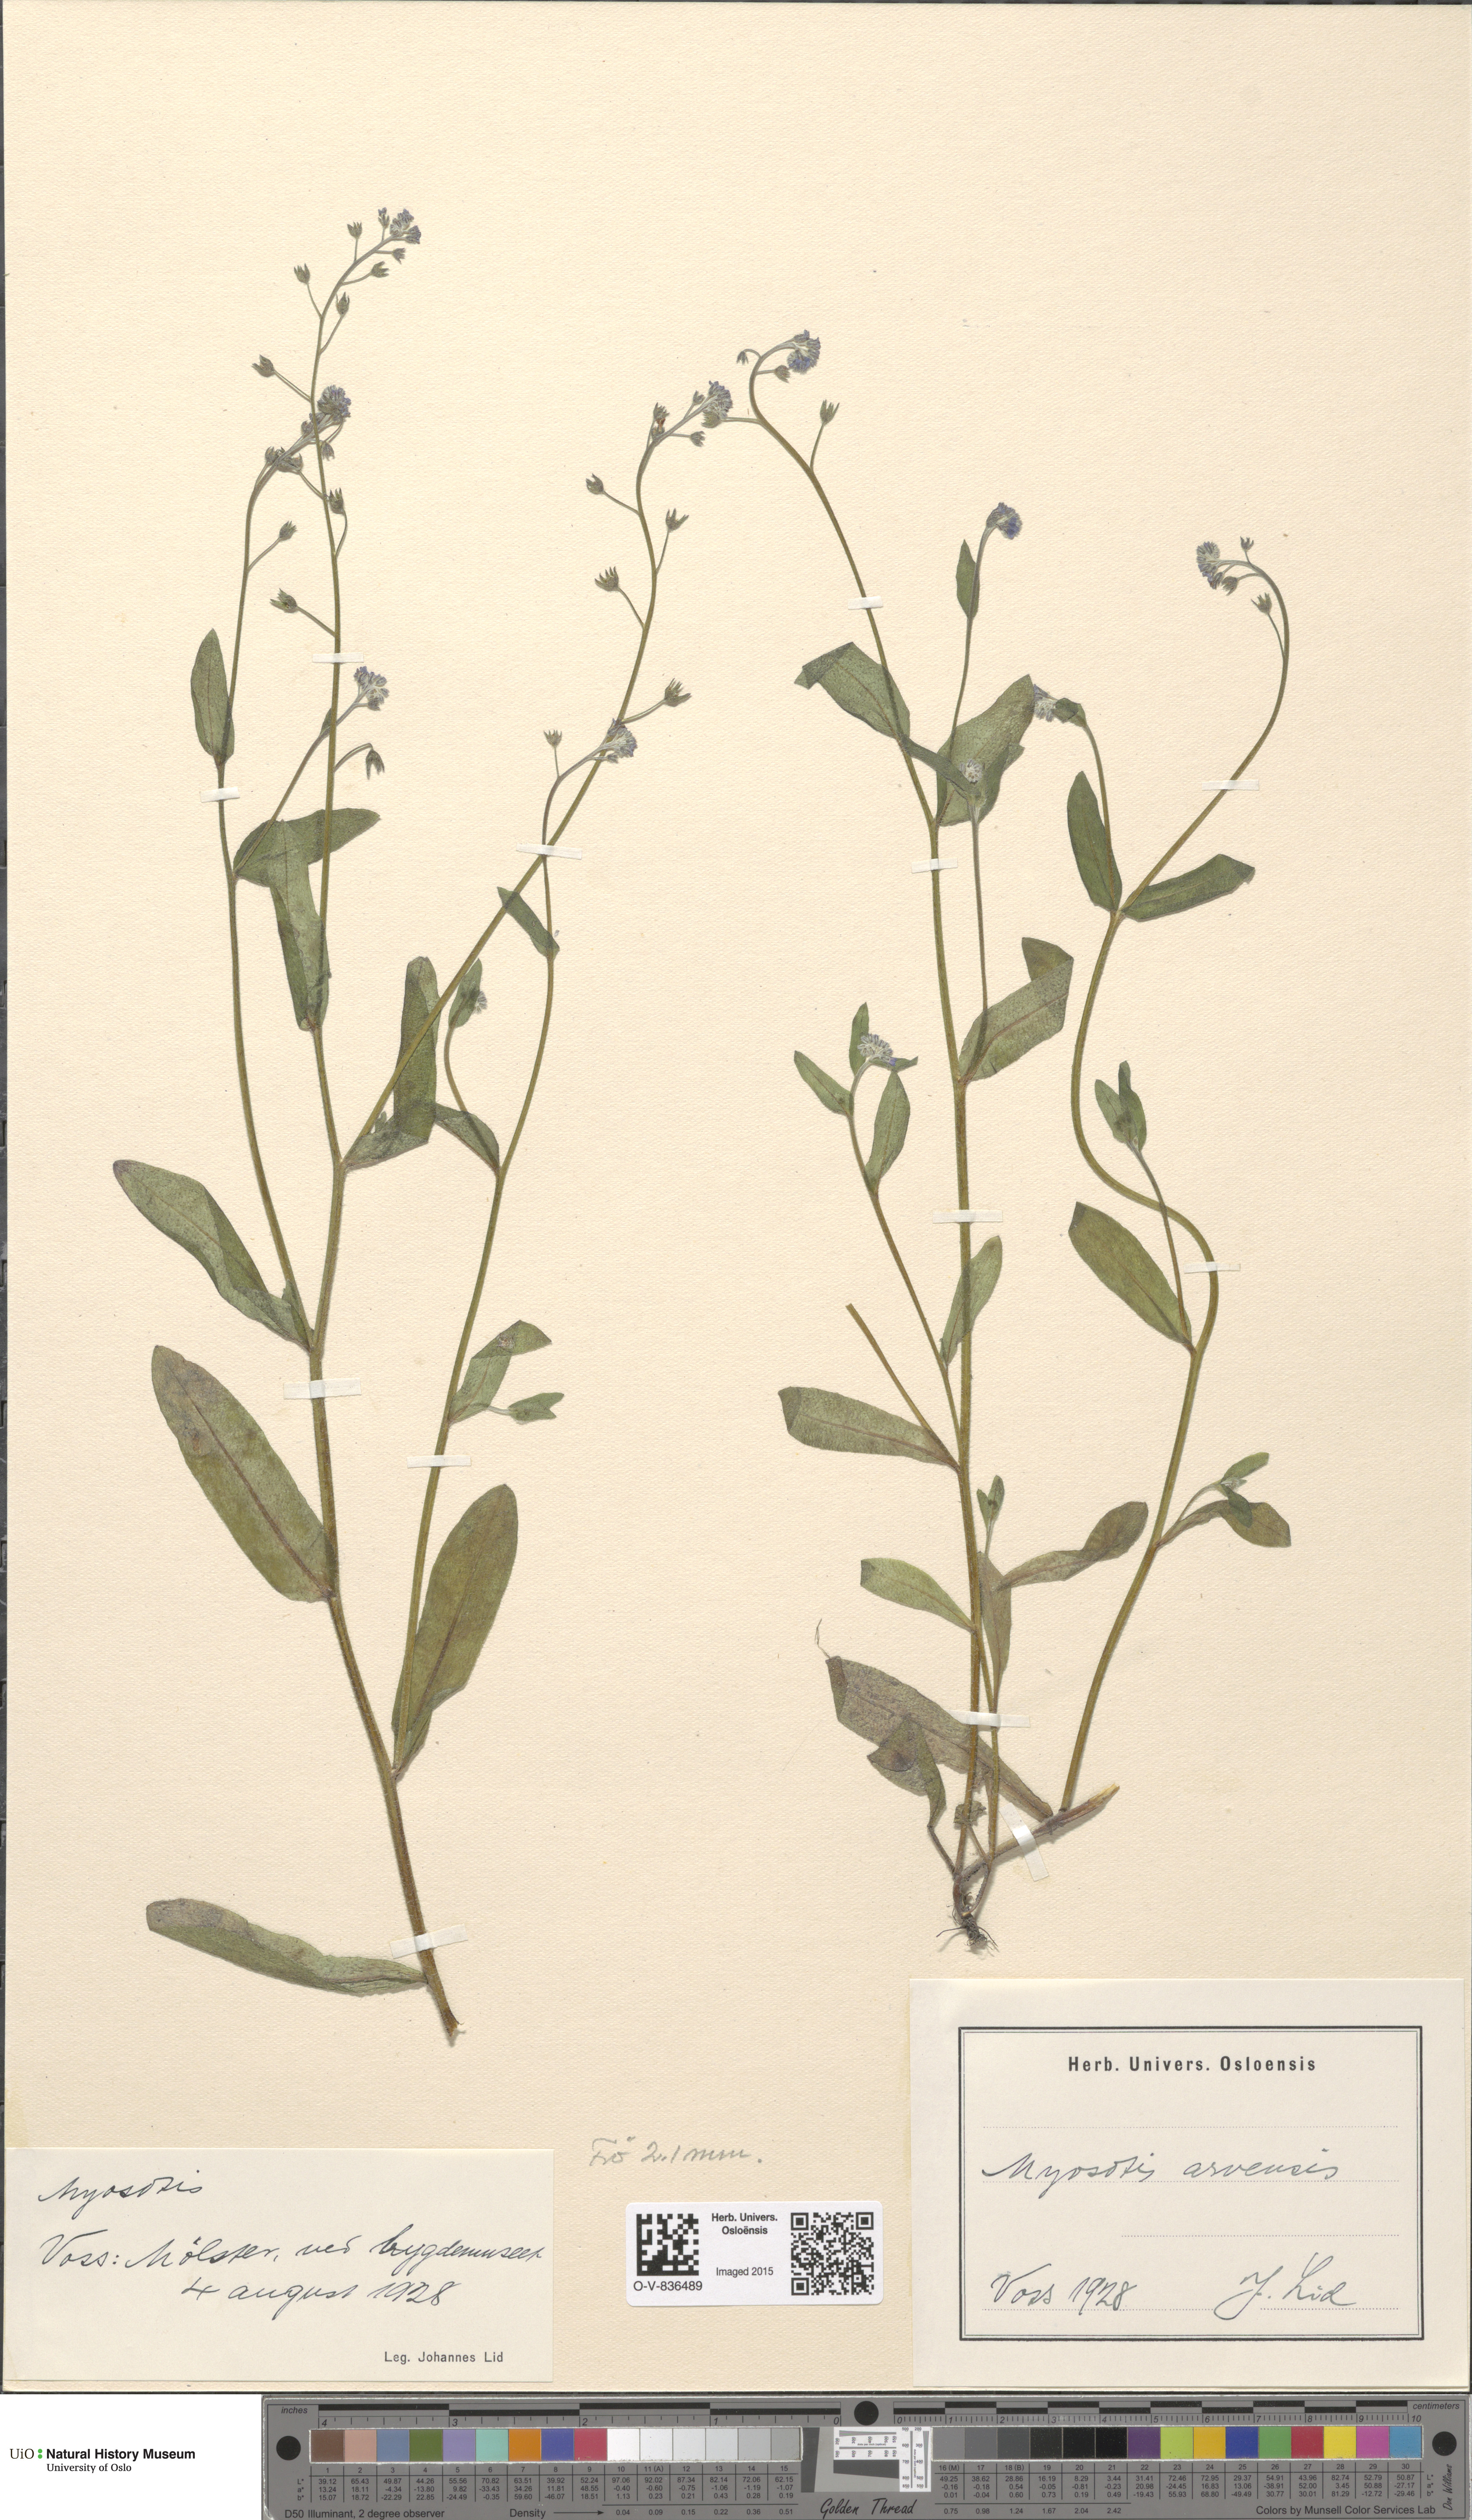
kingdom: Plantae
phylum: Tracheophyta
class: Magnoliopsida
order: Boraginales
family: Boraginaceae
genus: Myosotis
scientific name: Myosotis arvensis
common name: Field forget-me-not
